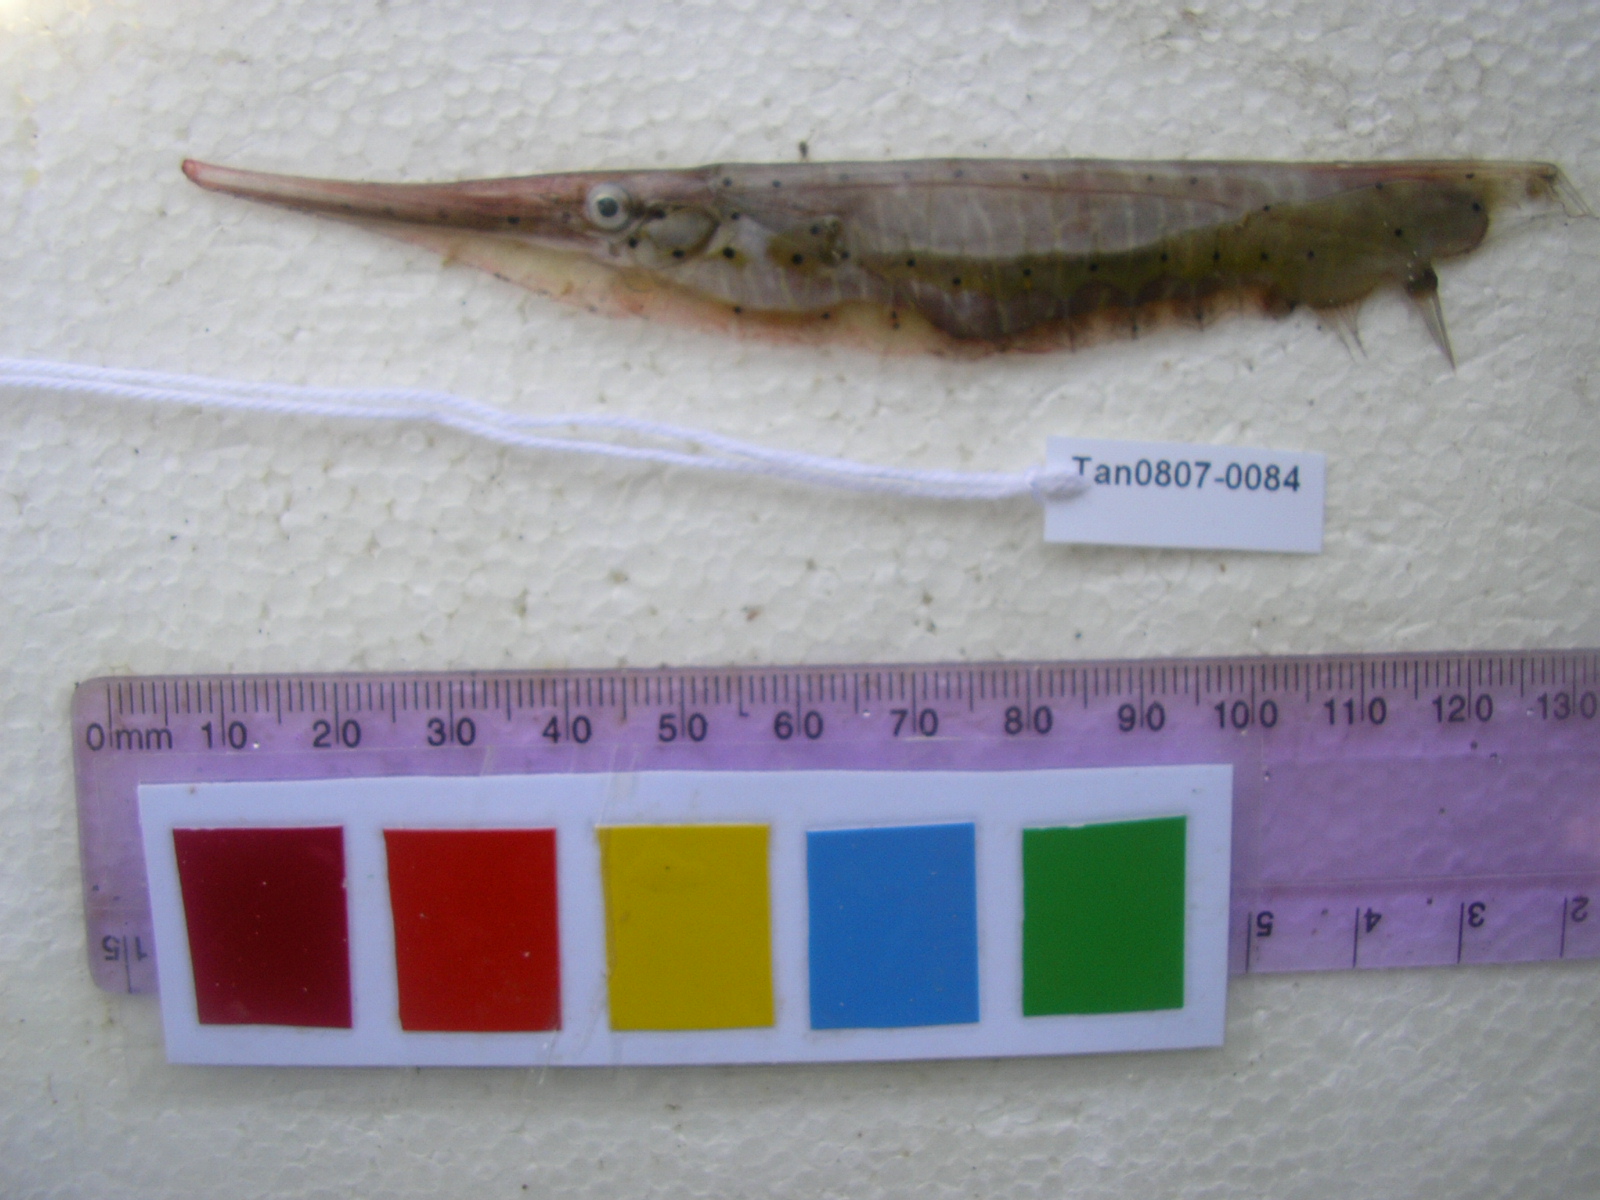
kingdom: Animalia
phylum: Chordata
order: Syngnathiformes
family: Centriscidae
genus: Aeoliscus
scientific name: Aeoliscus punctulatus
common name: Razorfish
